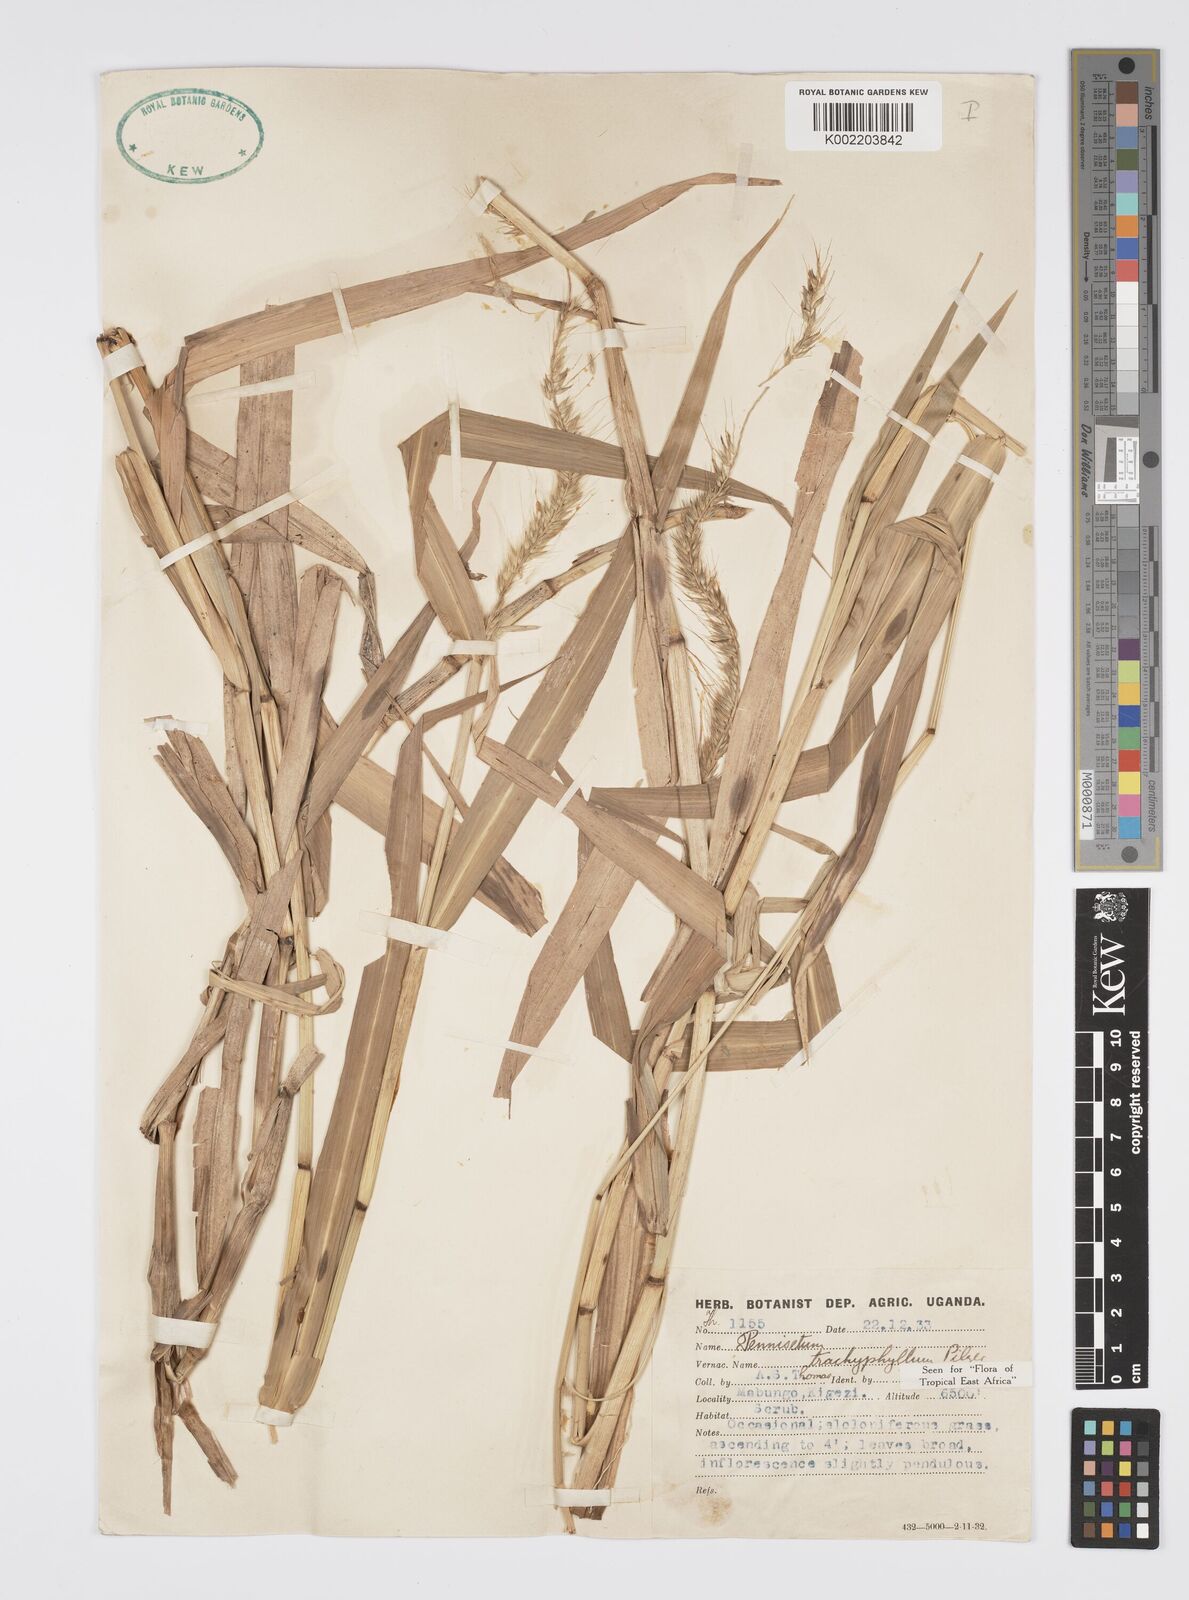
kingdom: Plantae
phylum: Tracheophyta
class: Liliopsida
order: Poales
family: Poaceae
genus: Cenchrus
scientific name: Cenchrus trachyphyllus
